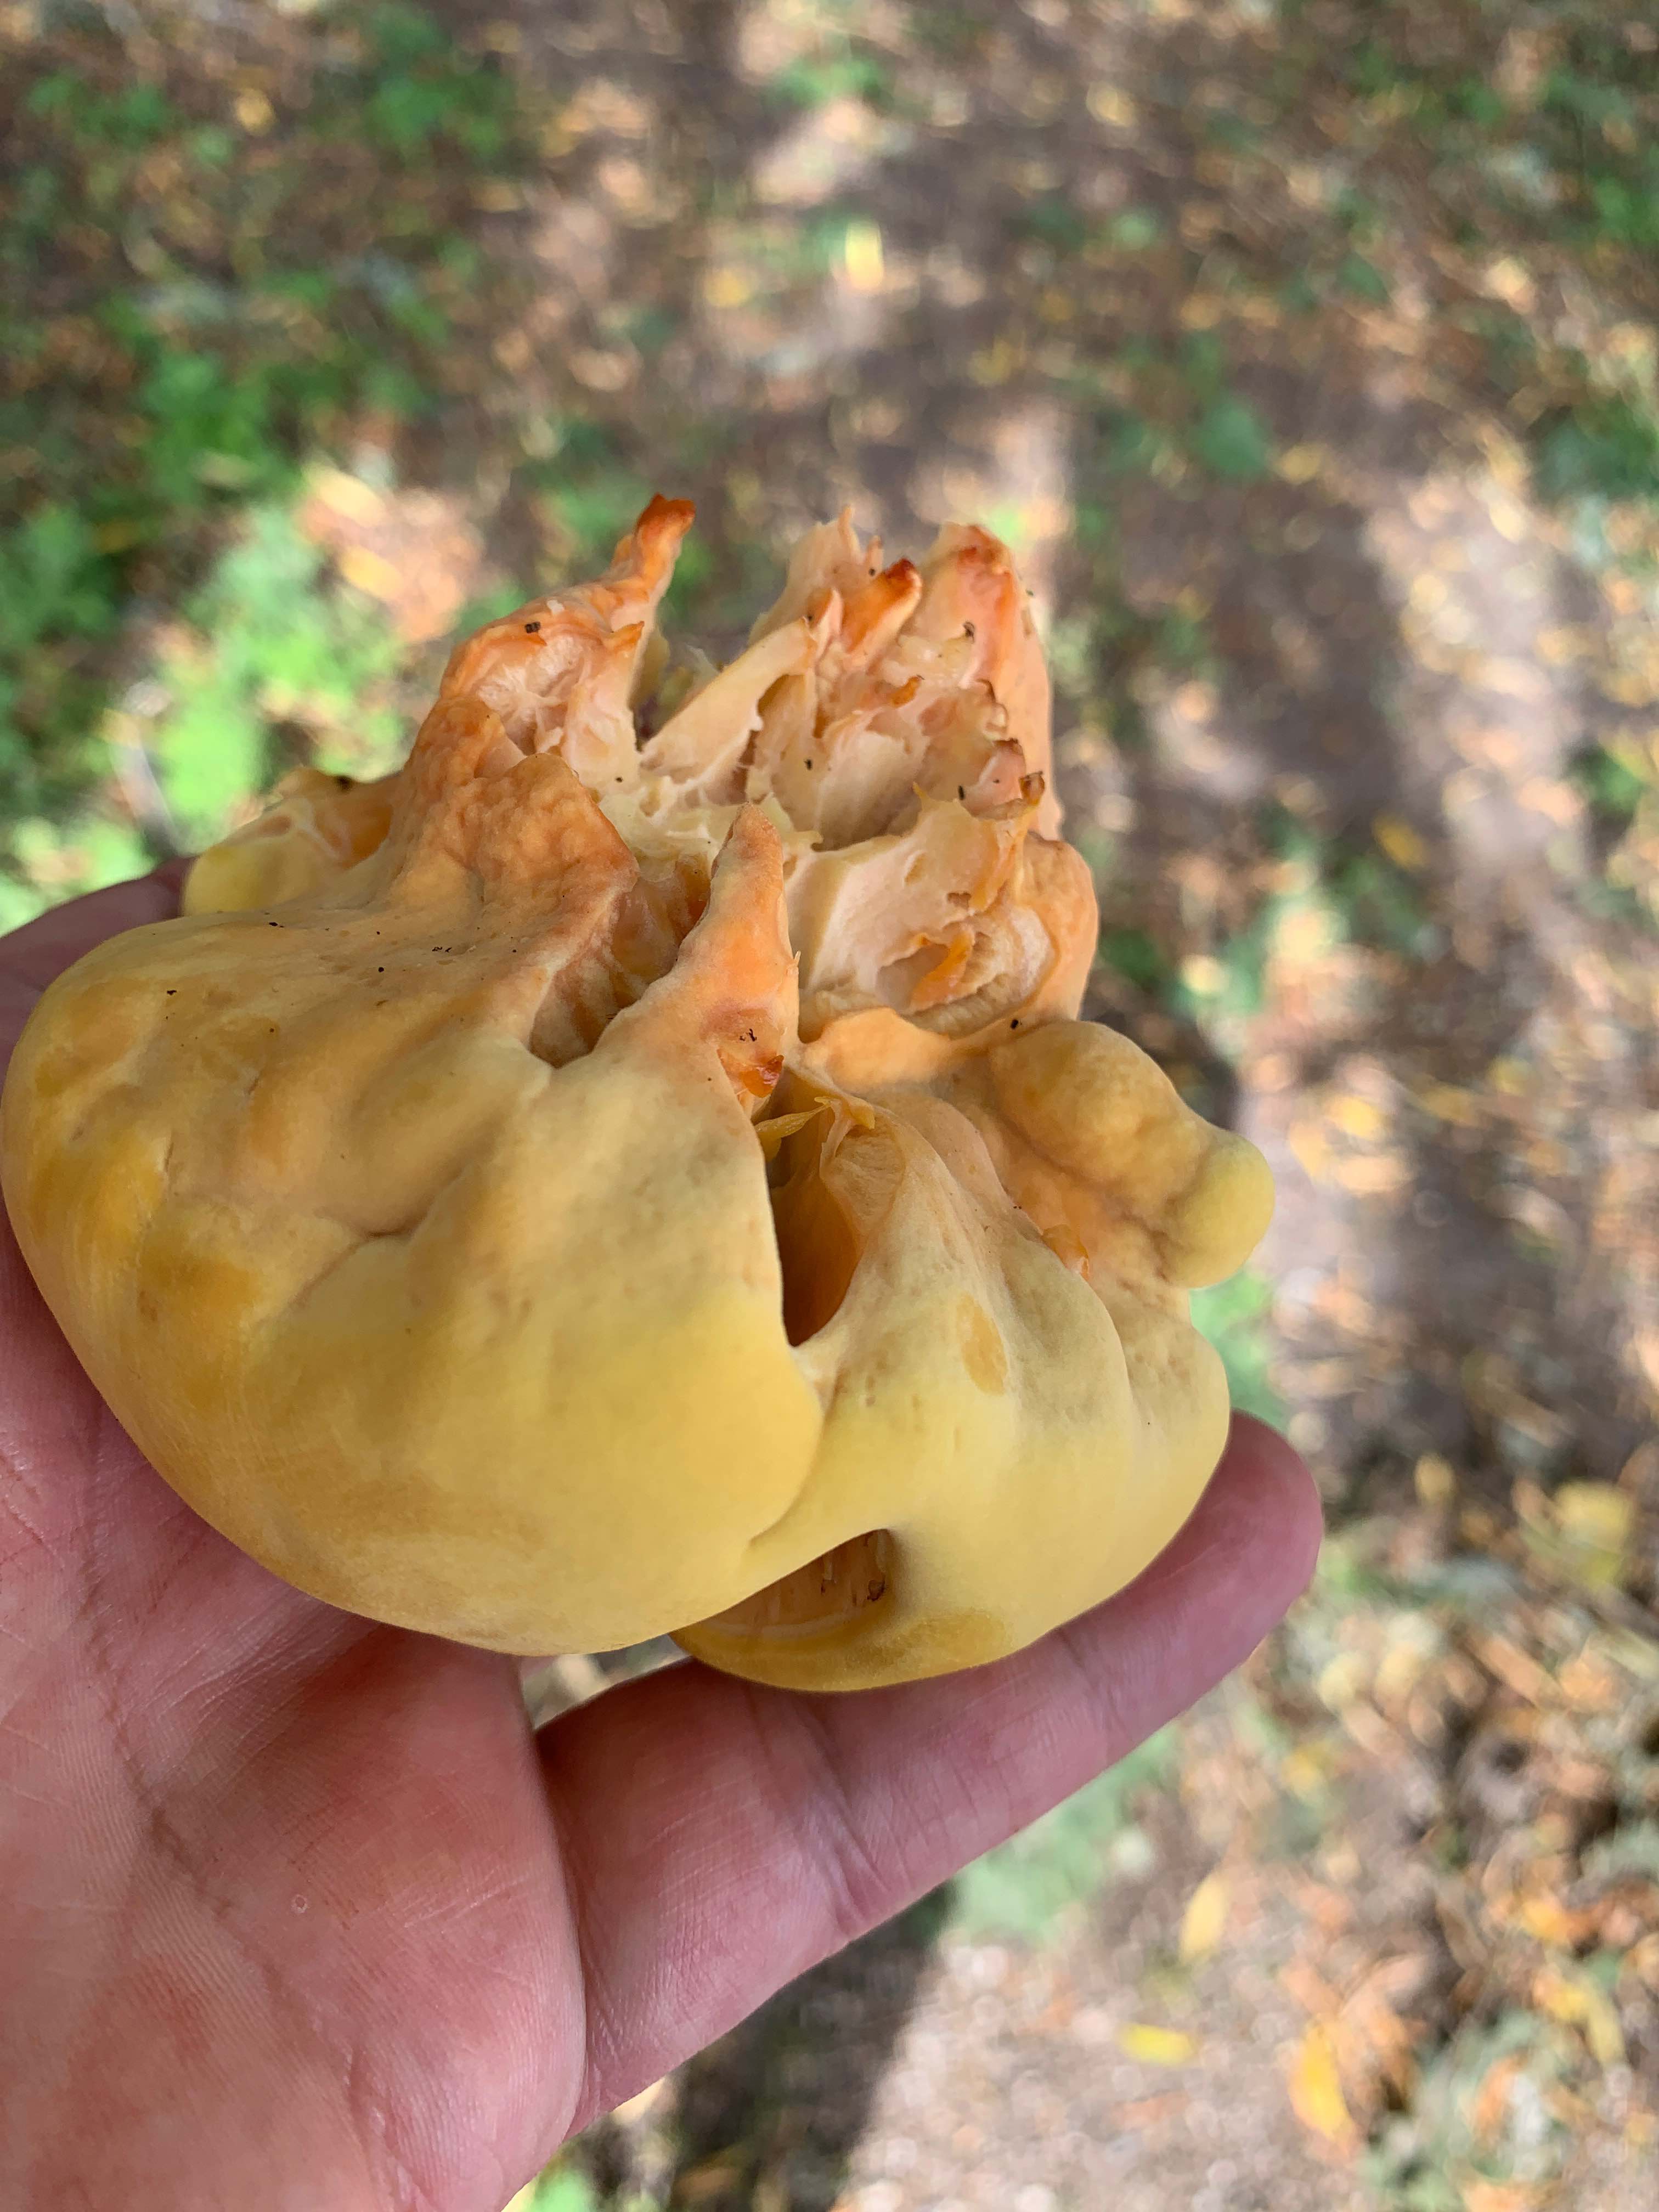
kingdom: Fungi
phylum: Basidiomycota
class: Agaricomycetes
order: Polyporales
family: Laetiporaceae
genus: Laetiporus
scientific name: Laetiporus sulphureus
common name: svovlporesvamp
